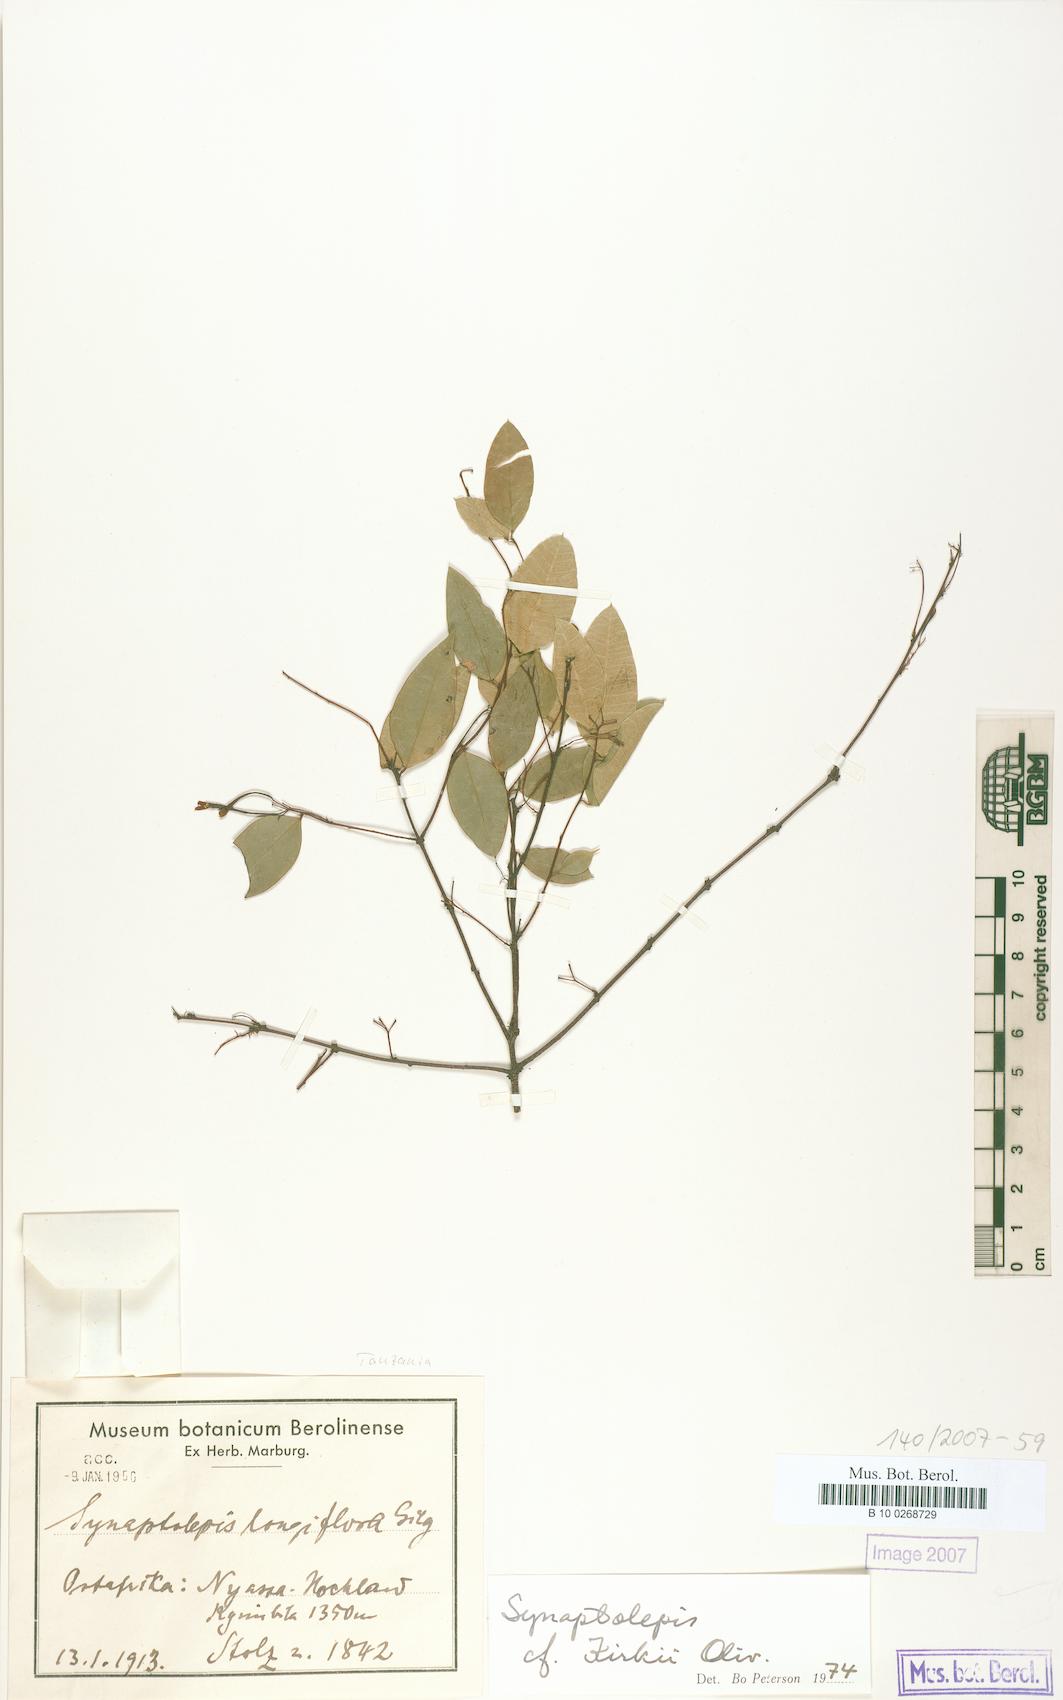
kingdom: Plantae
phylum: Tracheophyta
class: Magnoliopsida
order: Malvales
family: Thymelaeaceae
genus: Synaptolepis
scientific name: Synaptolepis kirkii
